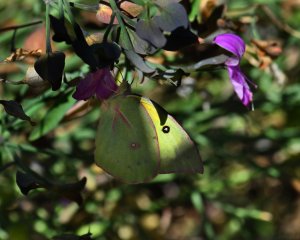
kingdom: Animalia
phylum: Arthropoda
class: Insecta
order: Lepidoptera
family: Pieridae
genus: Zerene
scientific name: Zerene cesonia
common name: Southern Dogface
